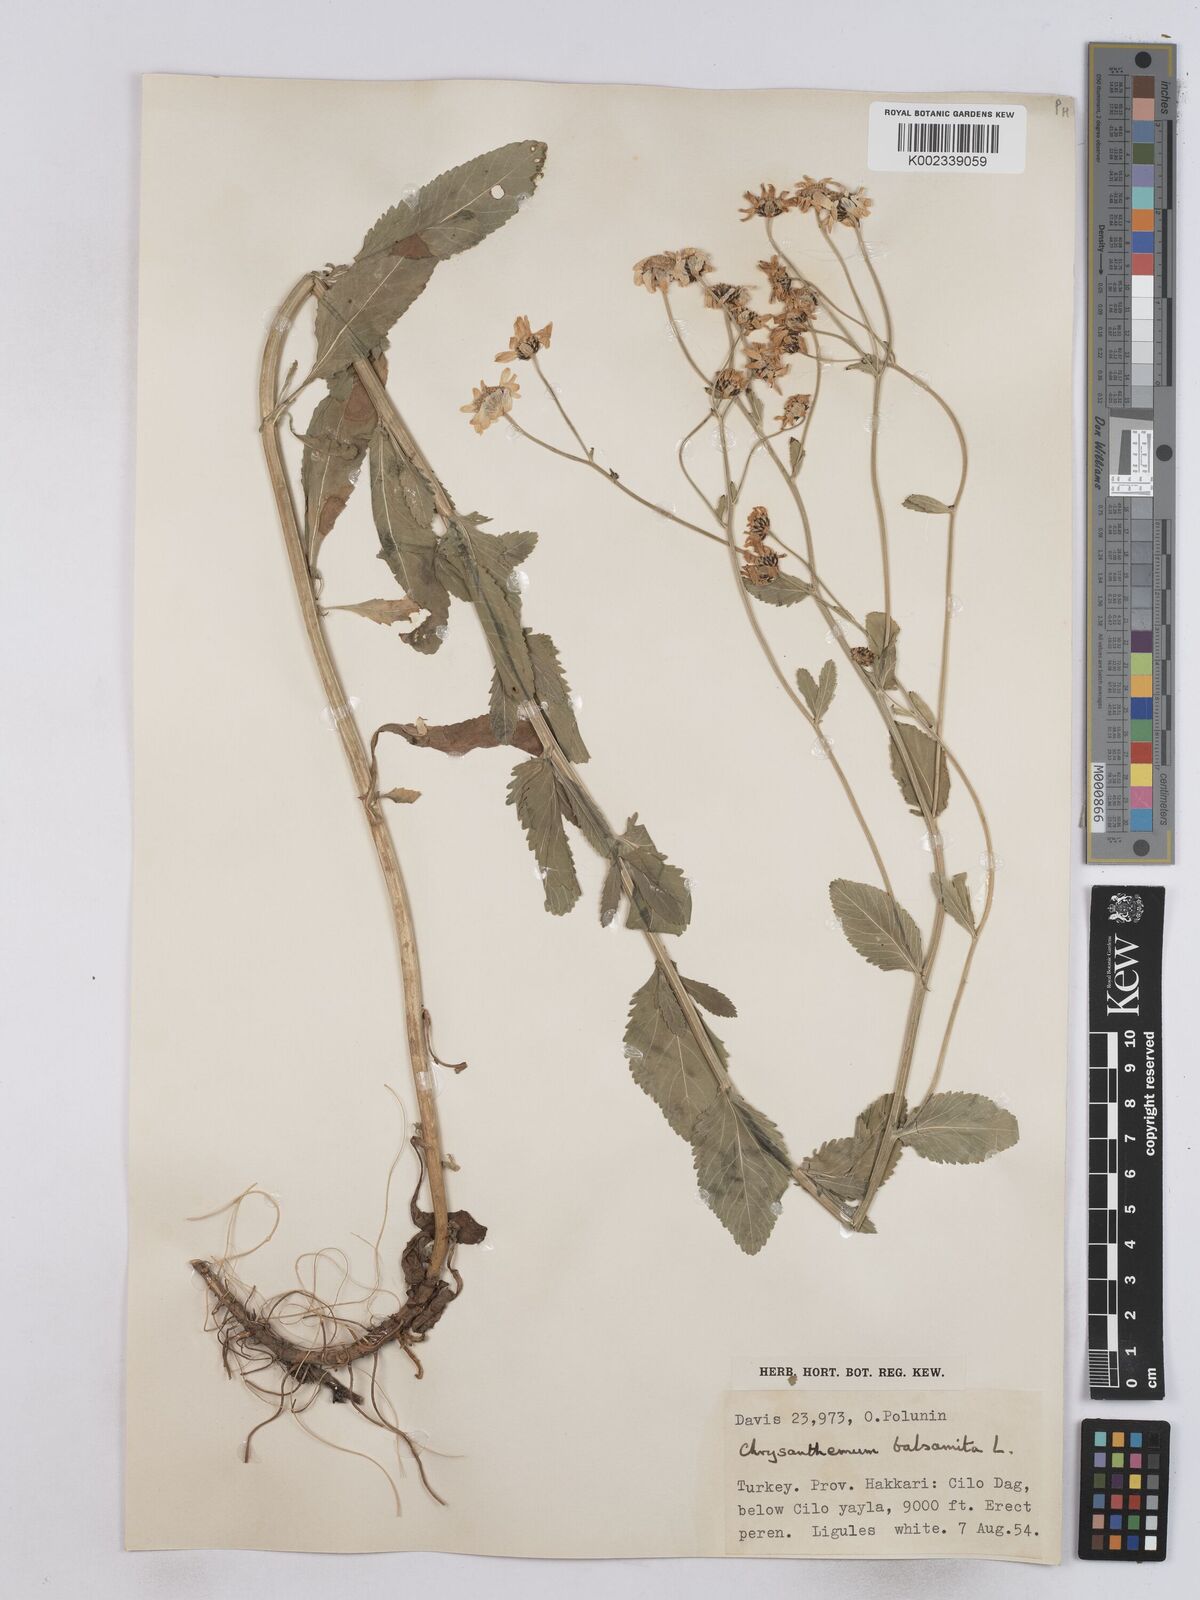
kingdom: Plantae
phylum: Tracheophyta
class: Magnoliopsida
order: Asterales
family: Asteraceae
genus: Tanacetum
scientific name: Tanacetum balsamita
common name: Costmary
